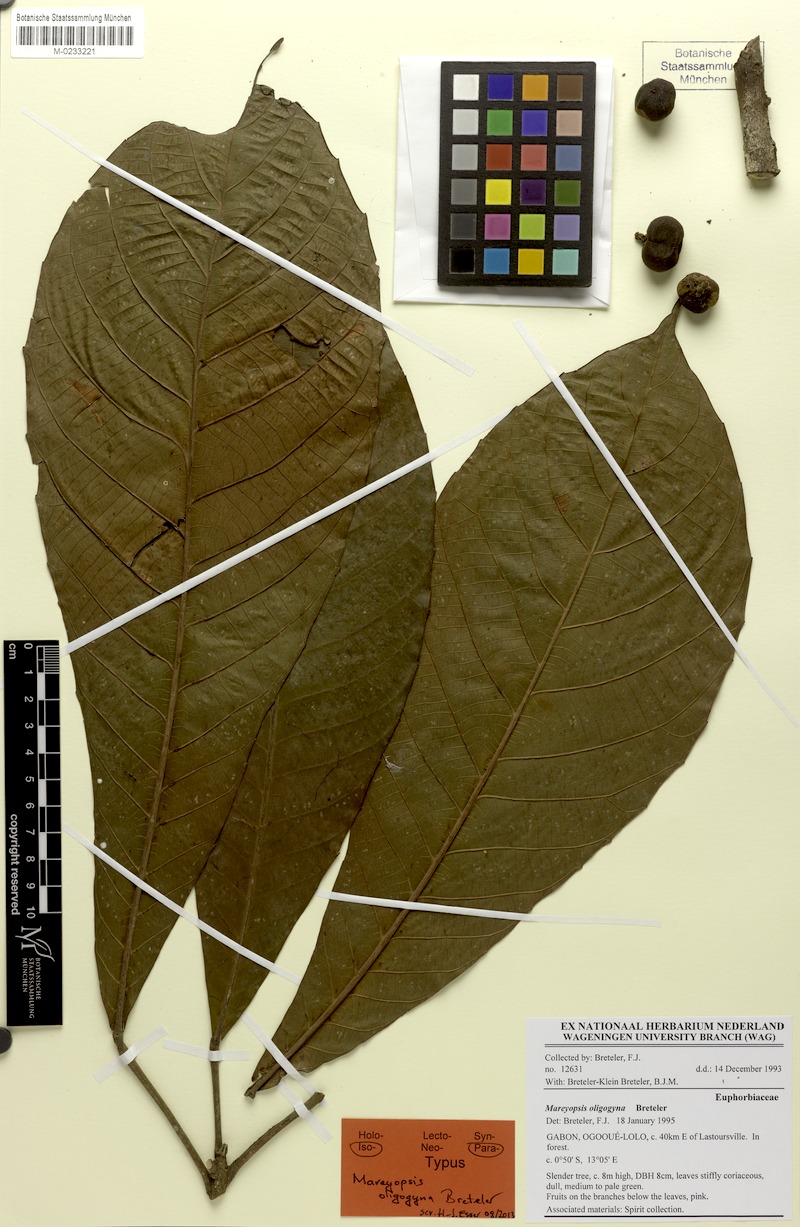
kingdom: Plantae
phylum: Tracheophyta
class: Magnoliopsida
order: Malpighiales
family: Euphorbiaceae
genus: Mareyopsis
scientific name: Mareyopsis oligogyna
